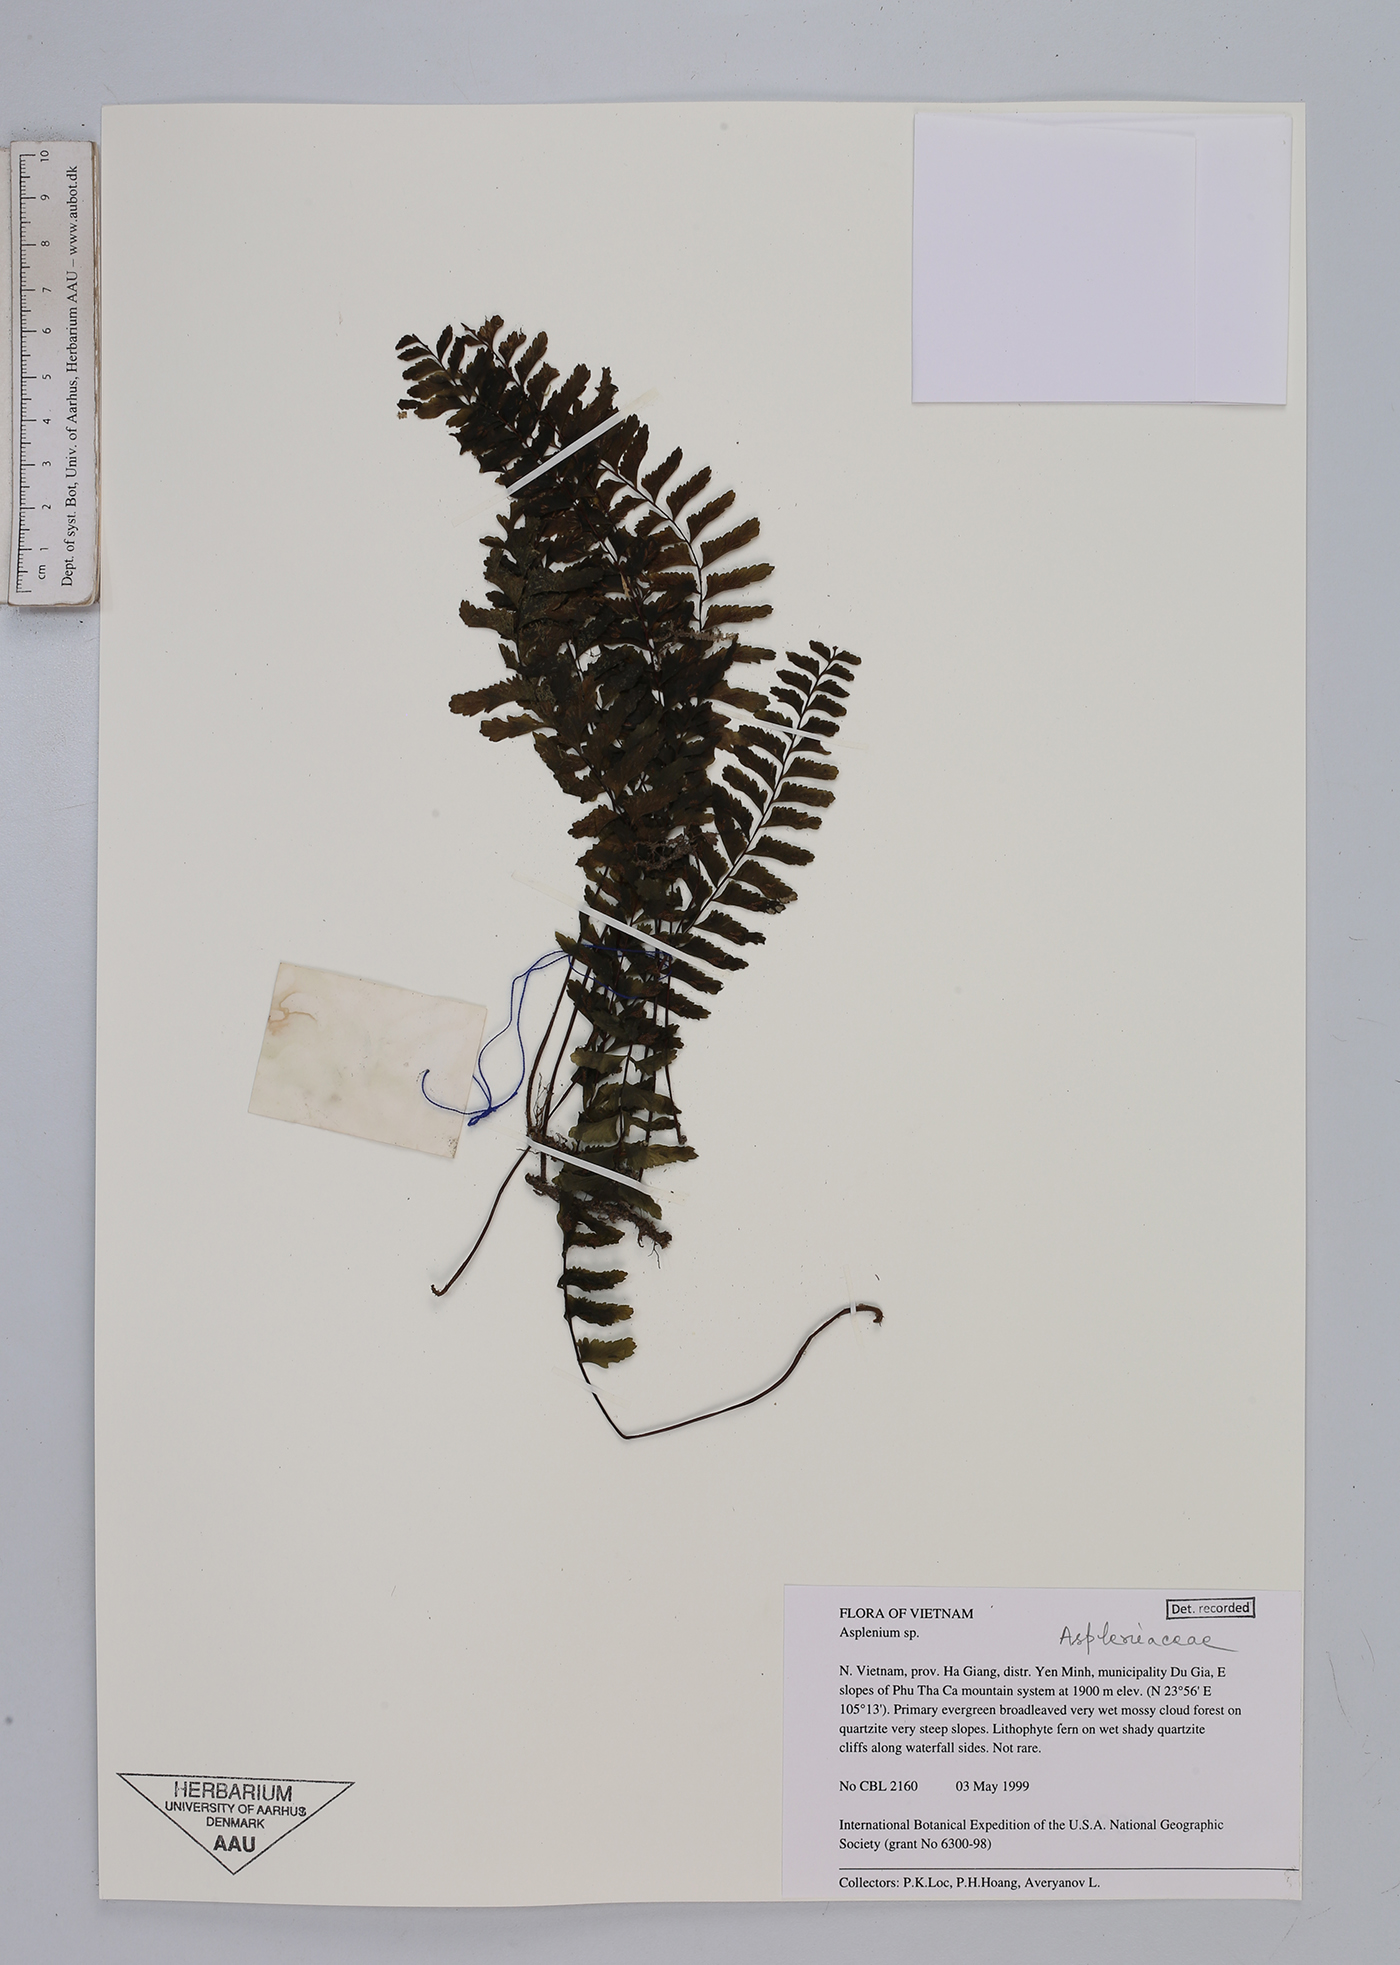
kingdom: Plantae
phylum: Tracheophyta
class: Polypodiopsida
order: Polypodiales
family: Aspleniaceae
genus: Asplenium
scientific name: Asplenium
